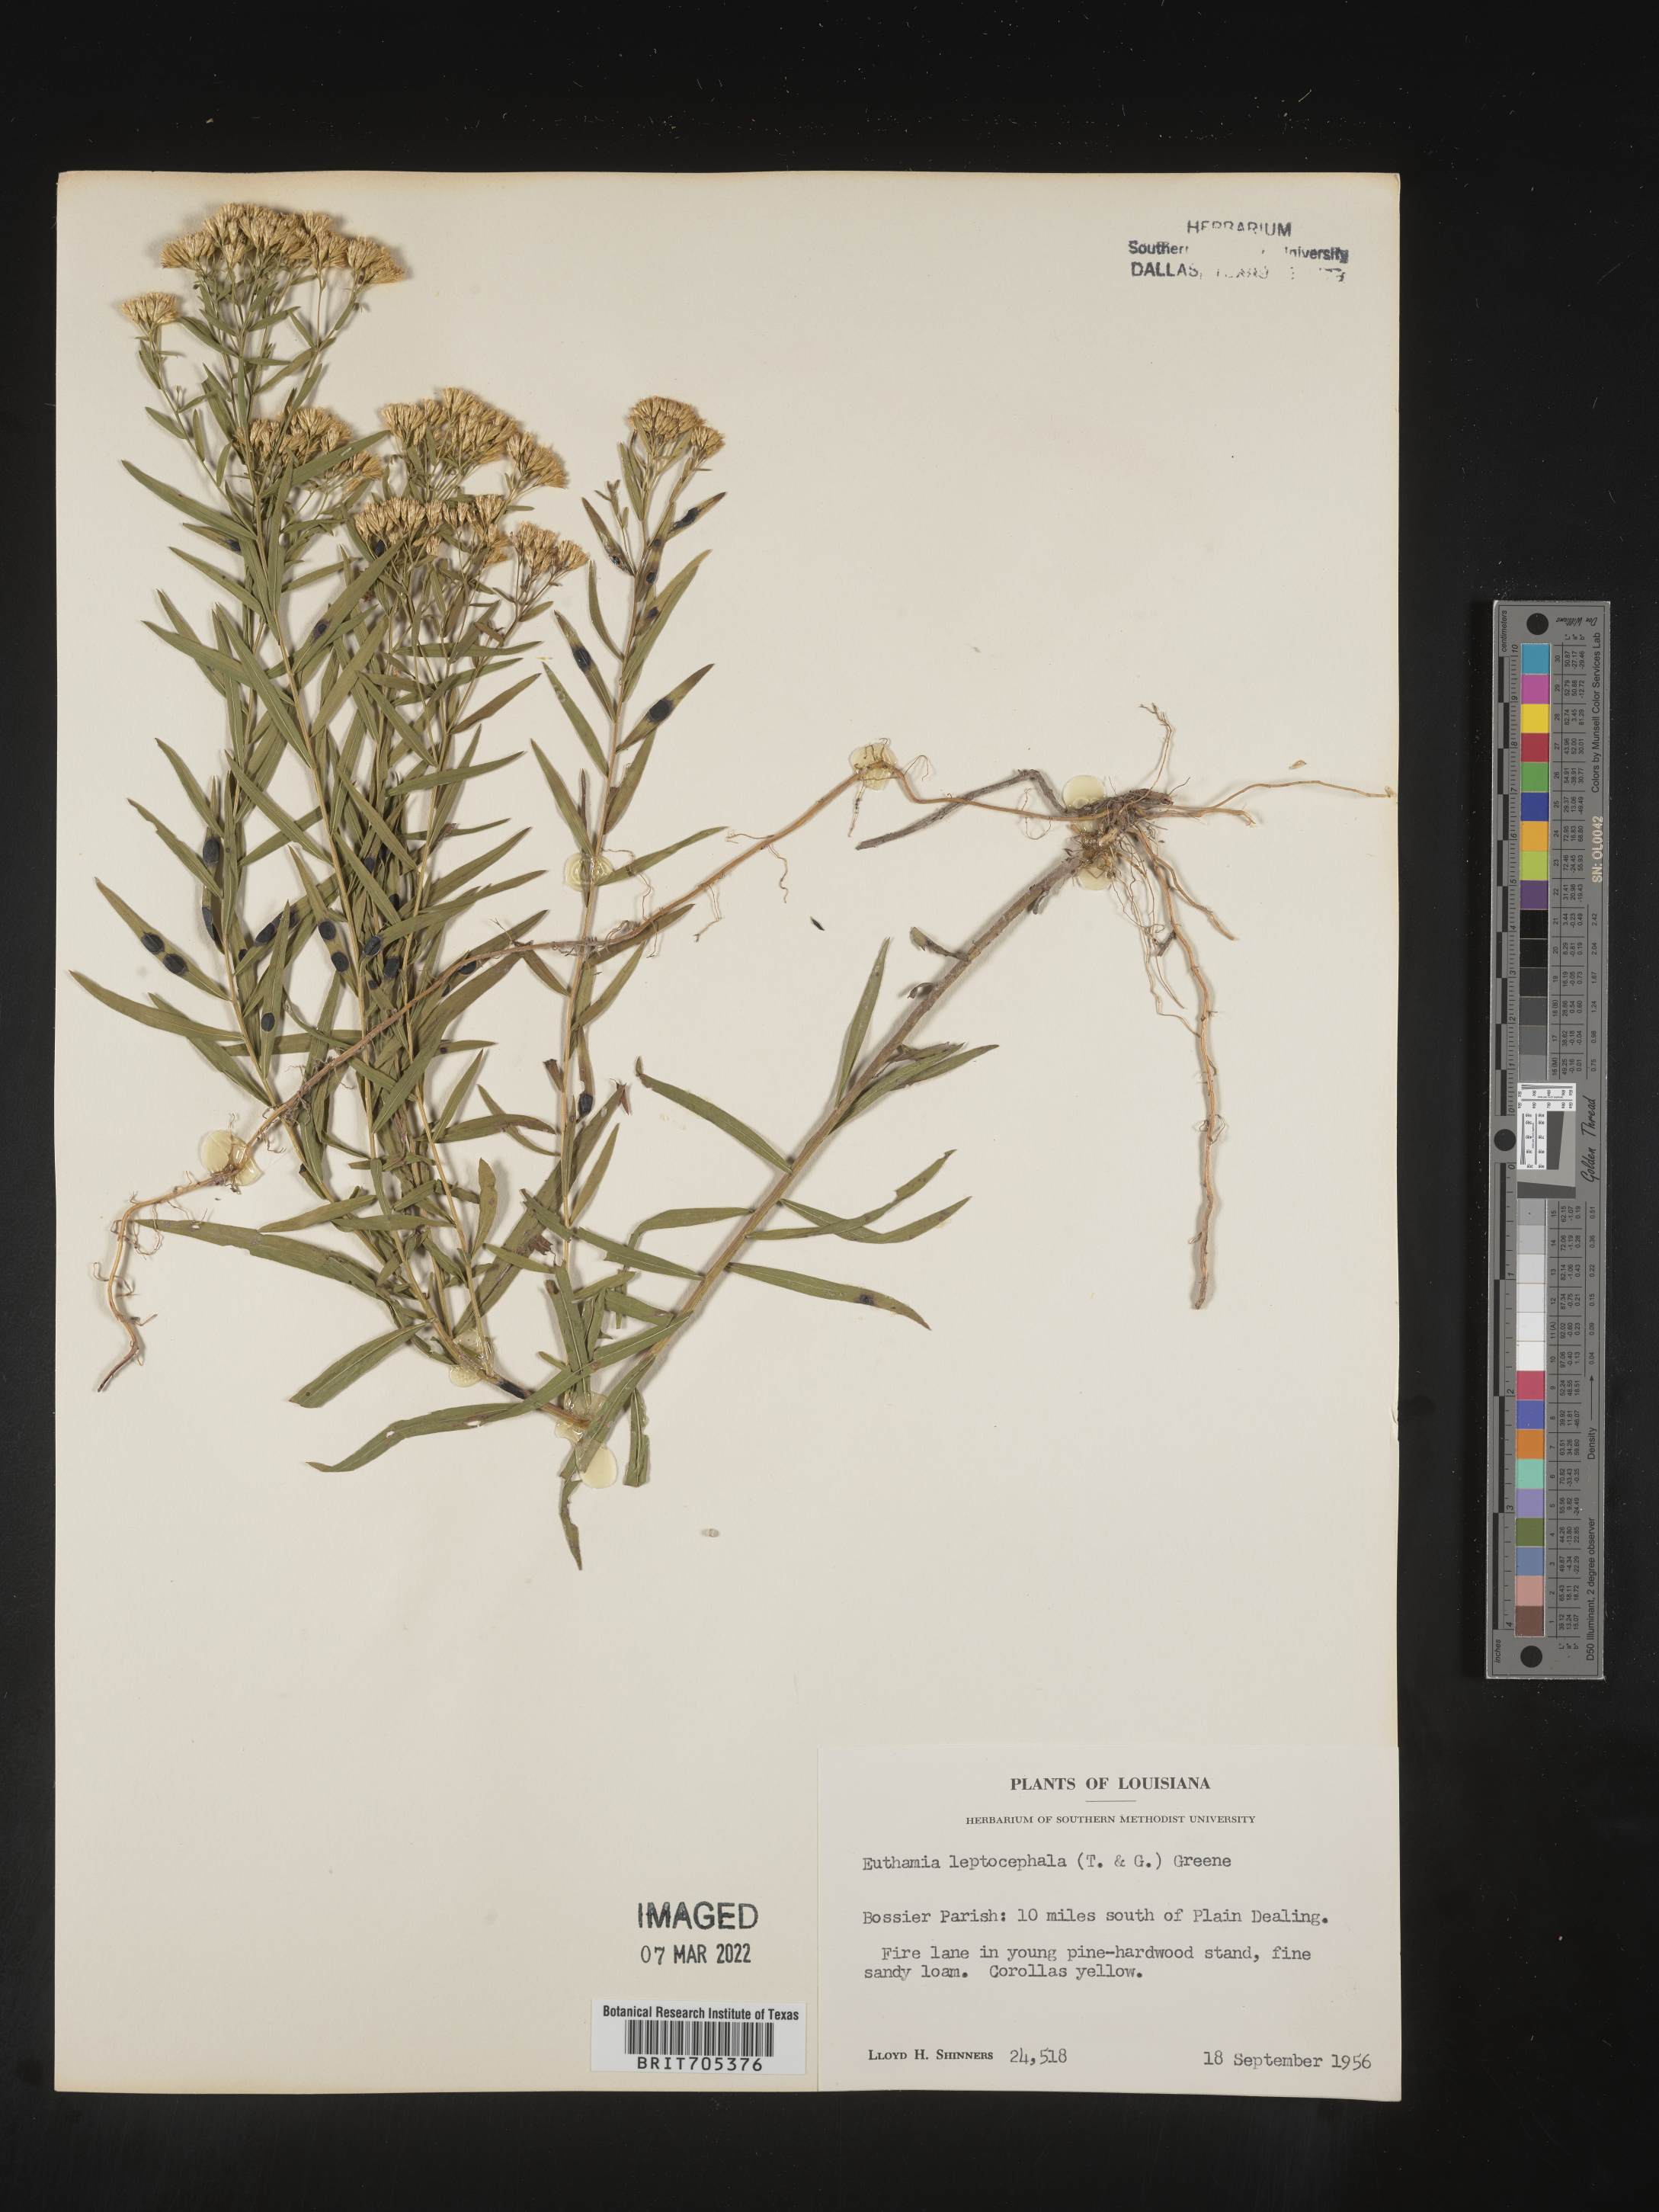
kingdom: Plantae
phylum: Tracheophyta
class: Magnoliopsida
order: Asterales
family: Asteraceae
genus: Euthamia
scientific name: Euthamia leptocephala
